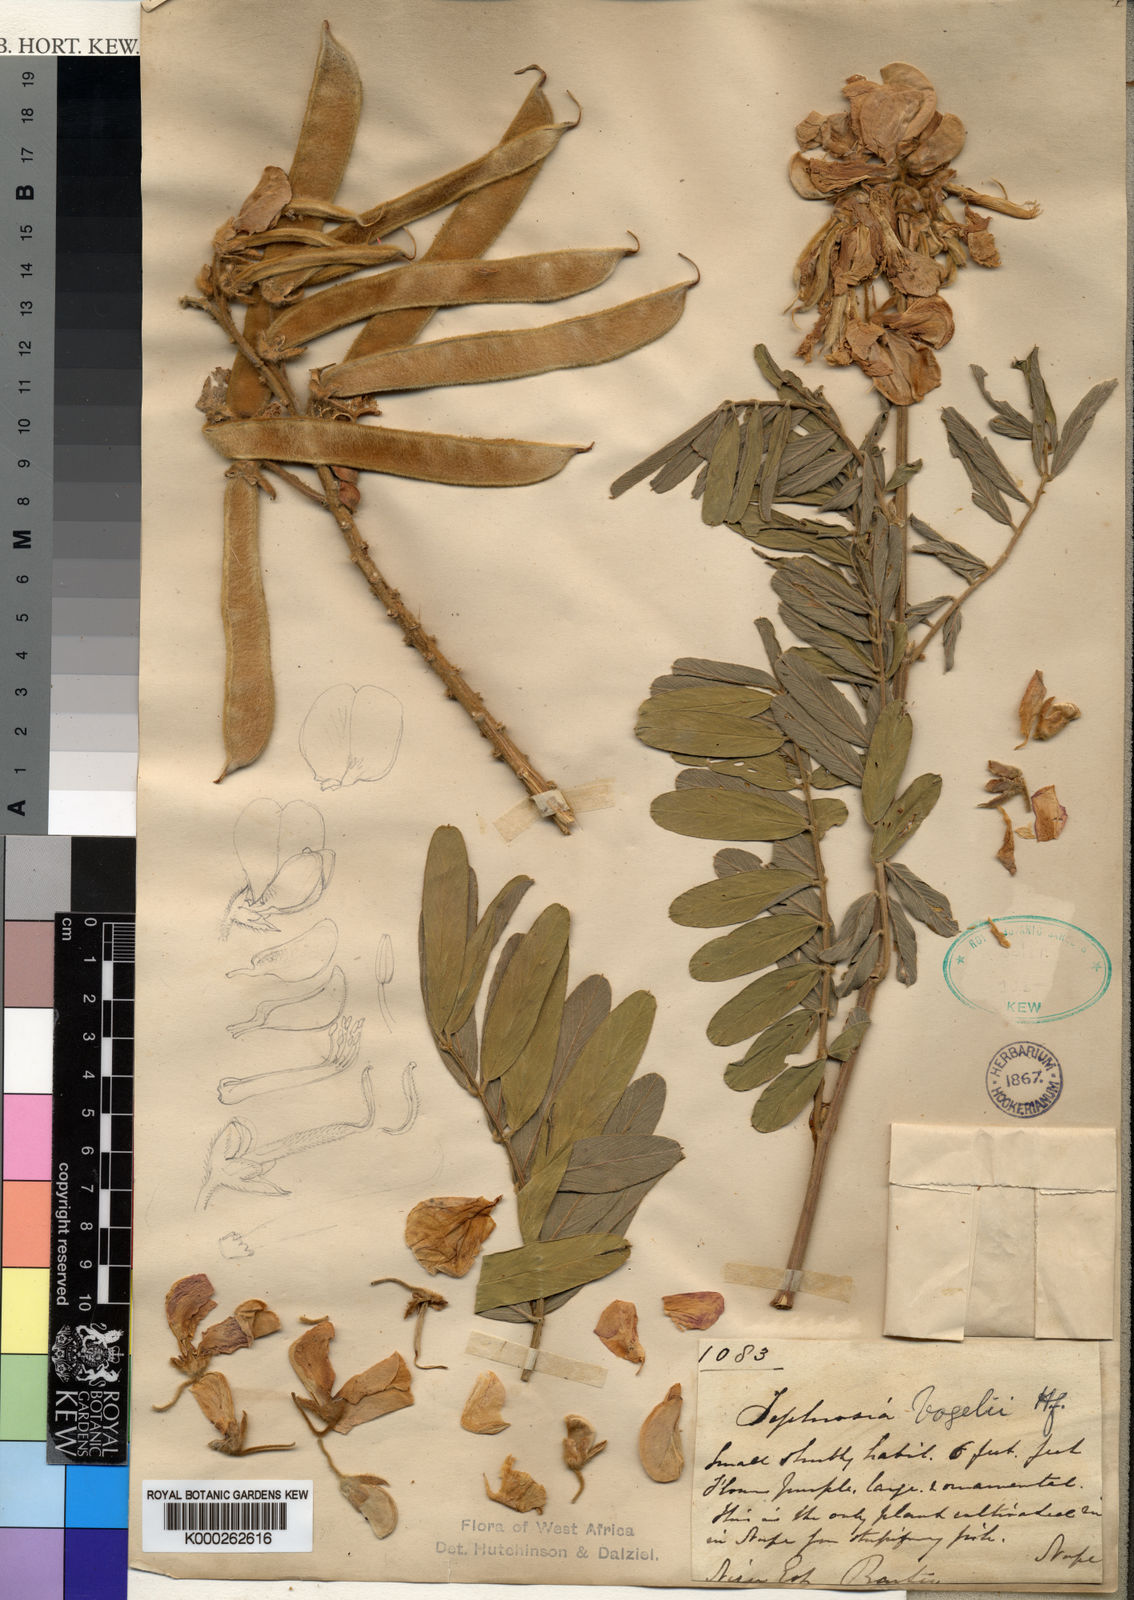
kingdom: Plantae
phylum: Tracheophyta
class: Magnoliopsida
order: Fabales
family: Fabaceae
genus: Tephrosia
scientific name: Tephrosia vogelii
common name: Vogel tephrosia
